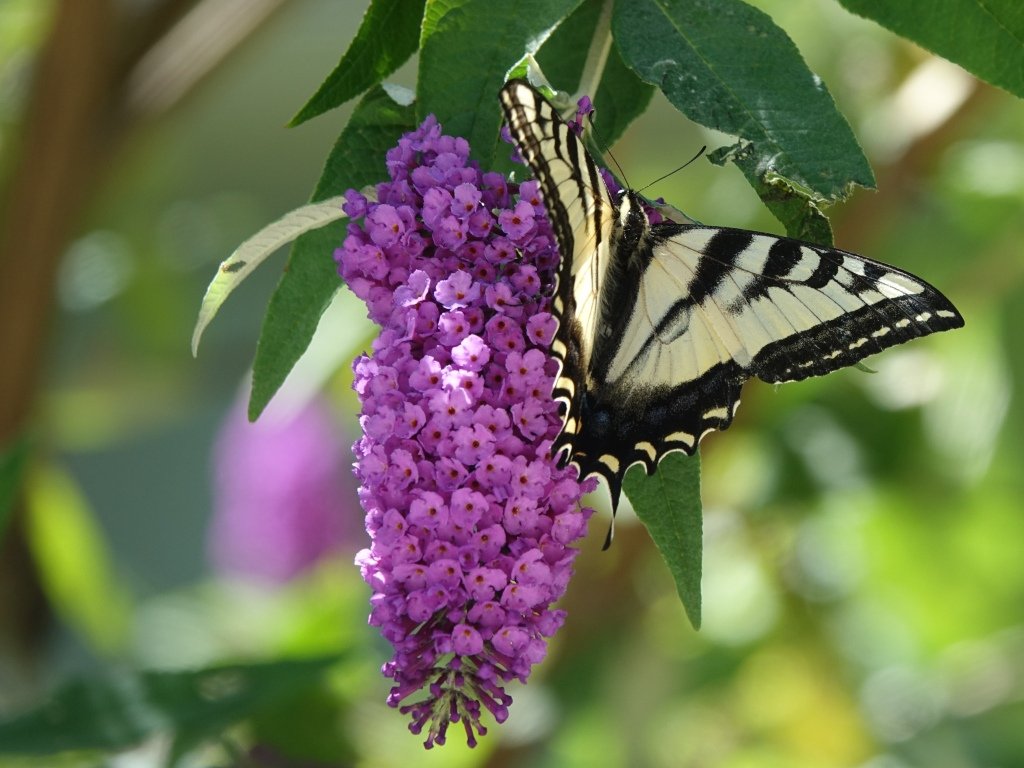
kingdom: Animalia
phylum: Arthropoda
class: Insecta
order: Lepidoptera
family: Papilionidae
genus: Pterourus
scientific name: Pterourus rutulus
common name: Western Tiger Swallowtail
